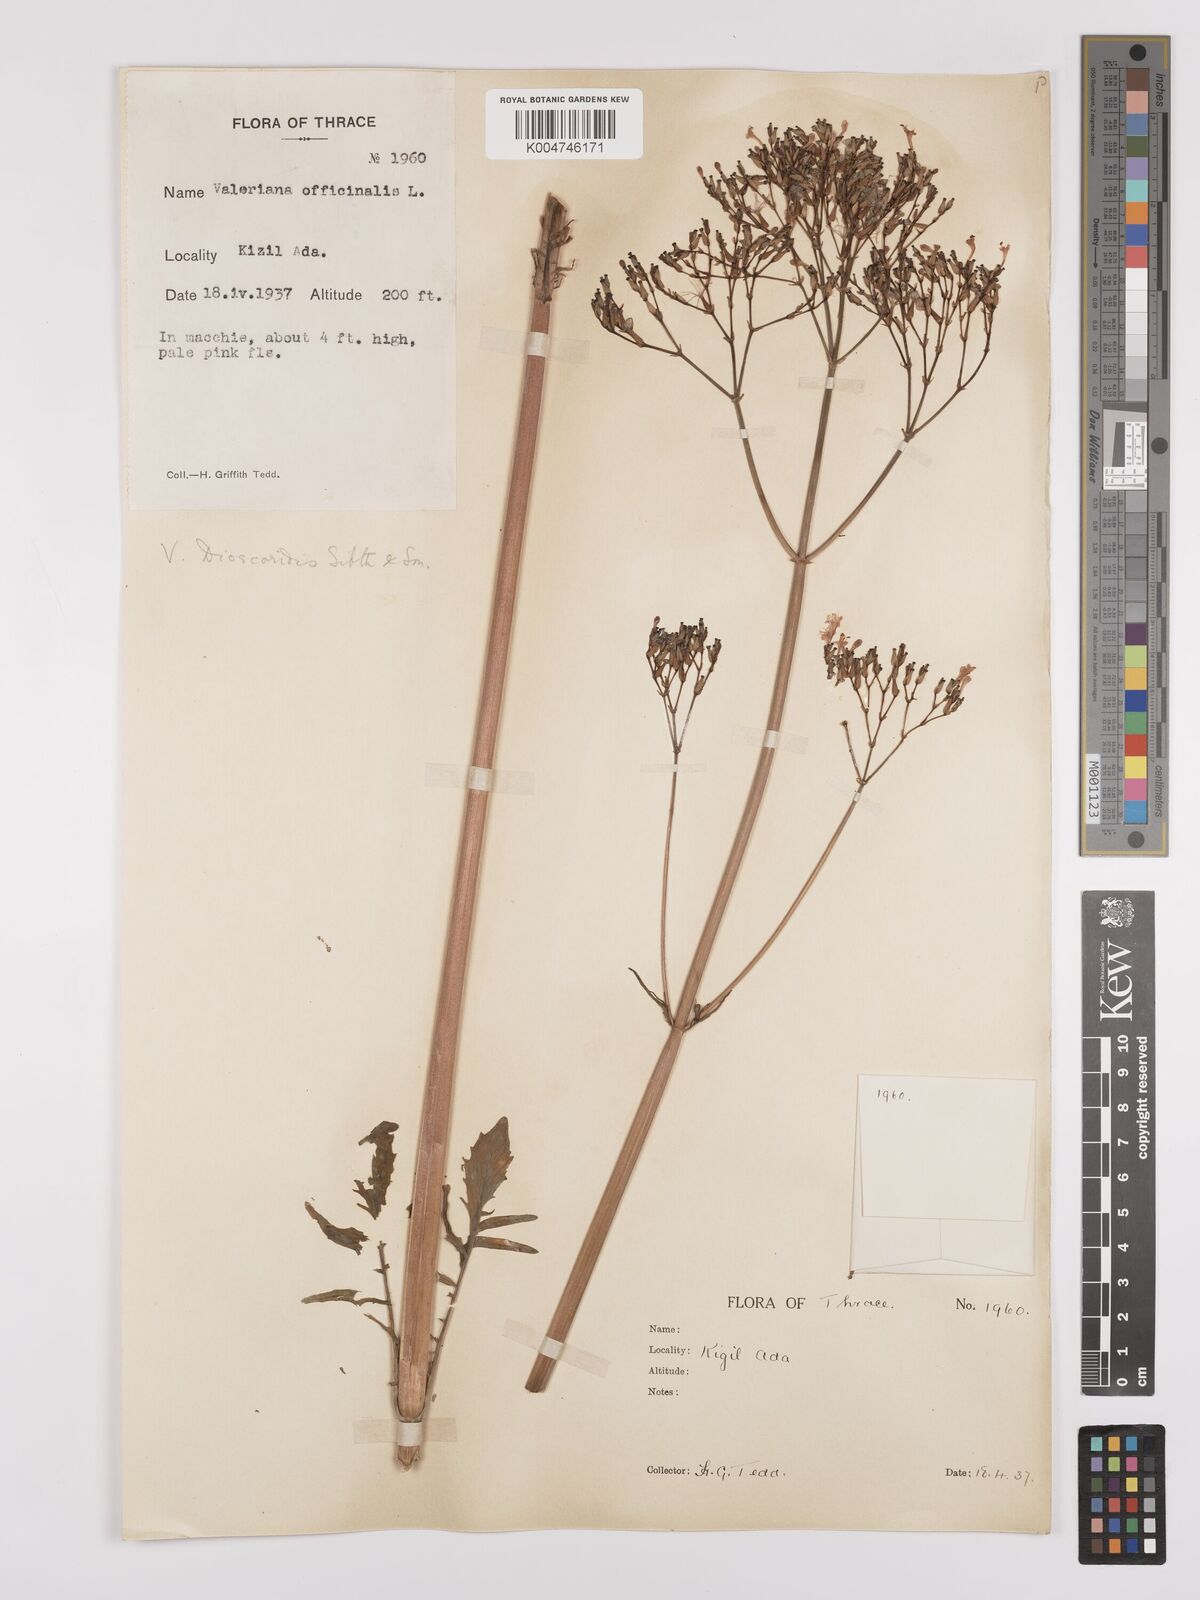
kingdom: Plantae
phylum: Tracheophyta
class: Magnoliopsida
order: Dipsacales
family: Caprifoliaceae
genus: Valeriana
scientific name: Valeriana dioscoridis
